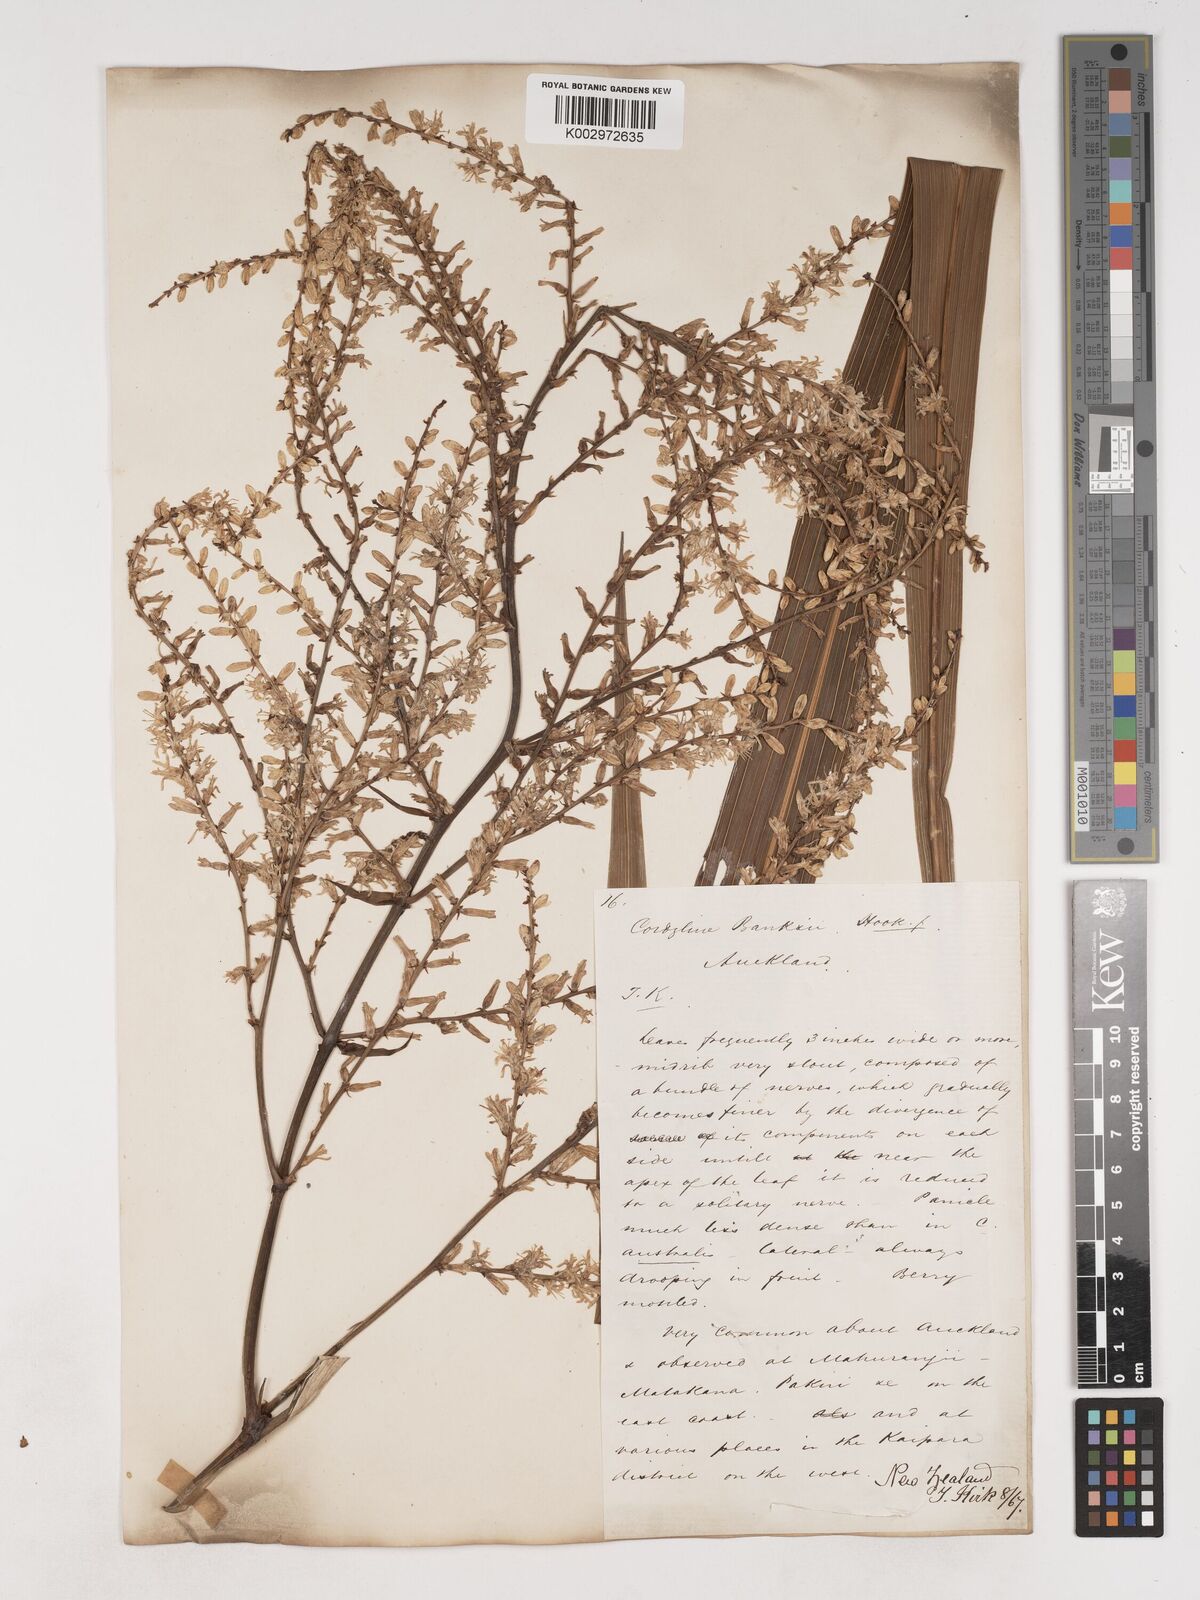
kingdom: Plantae
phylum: Tracheophyta
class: Liliopsida
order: Asparagales
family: Asparagaceae
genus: Cordyline
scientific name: Cordyline banksii
